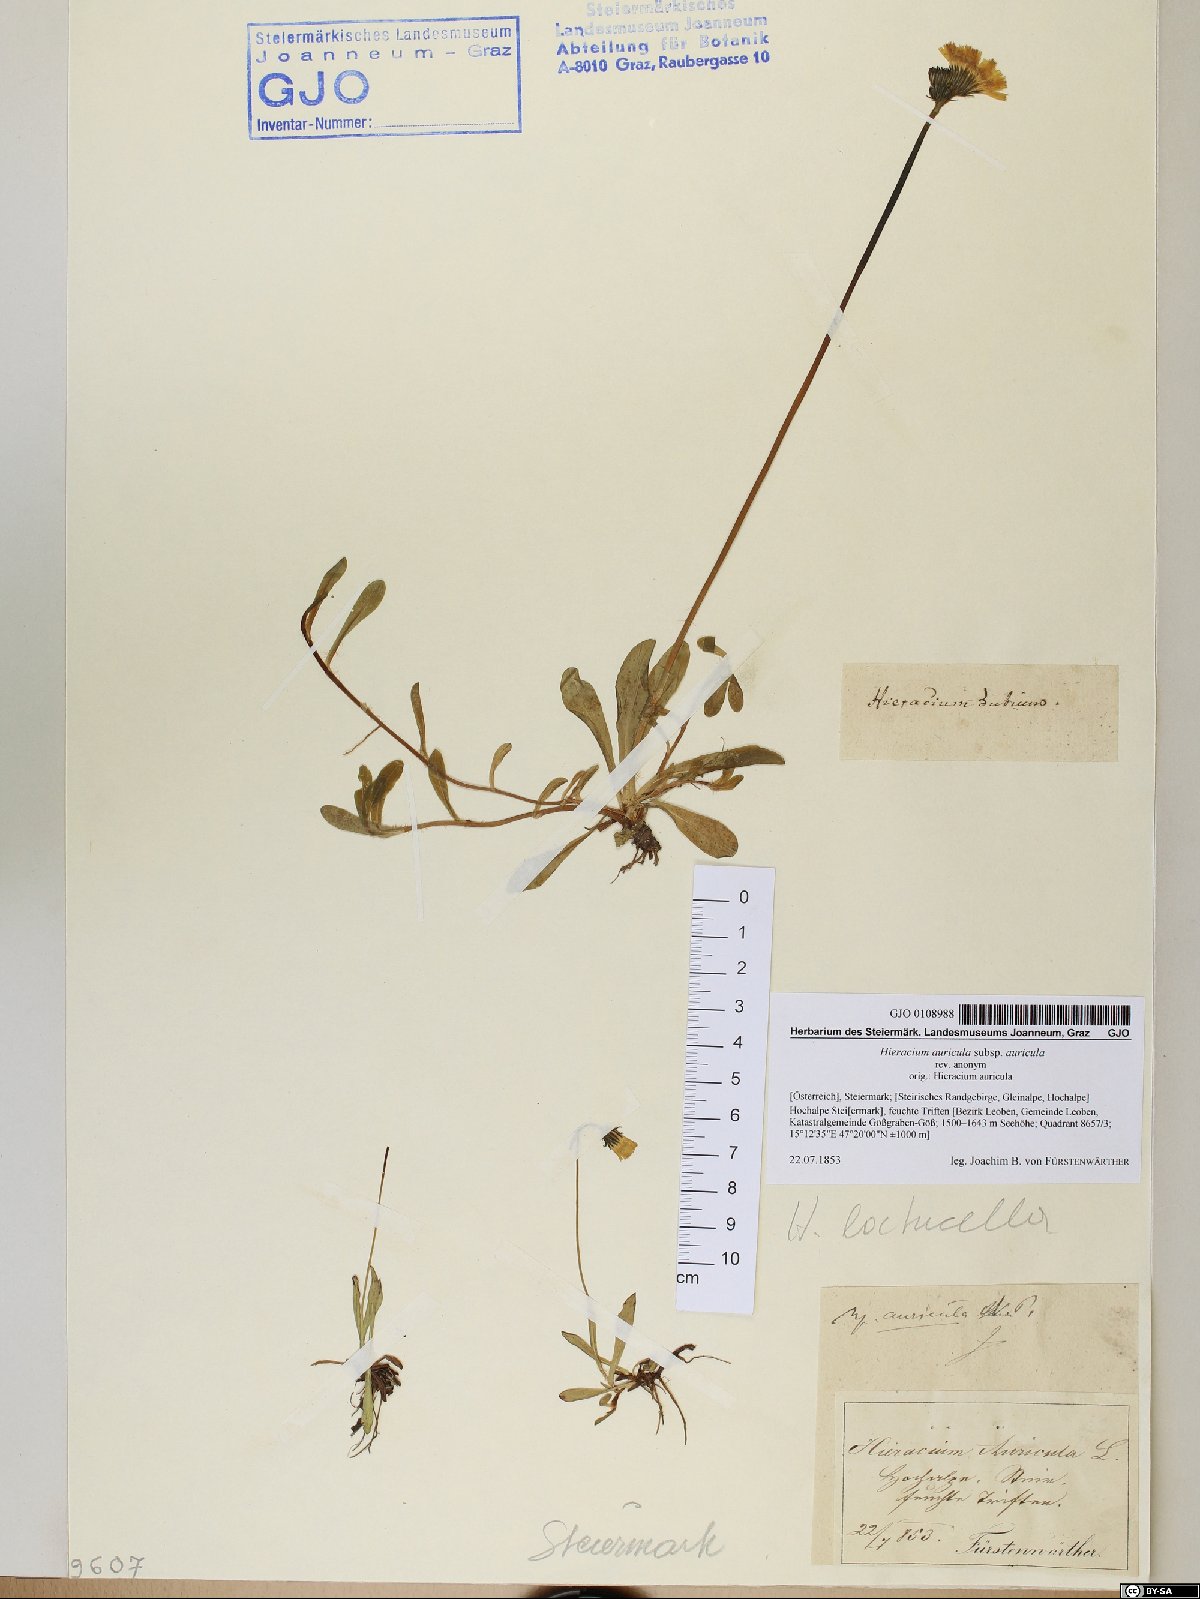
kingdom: Plantae
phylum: Tracheophyta
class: Magnoliopsida
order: Asterales
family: Asteraceae
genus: Hieracium
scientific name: Hieracium auricula
